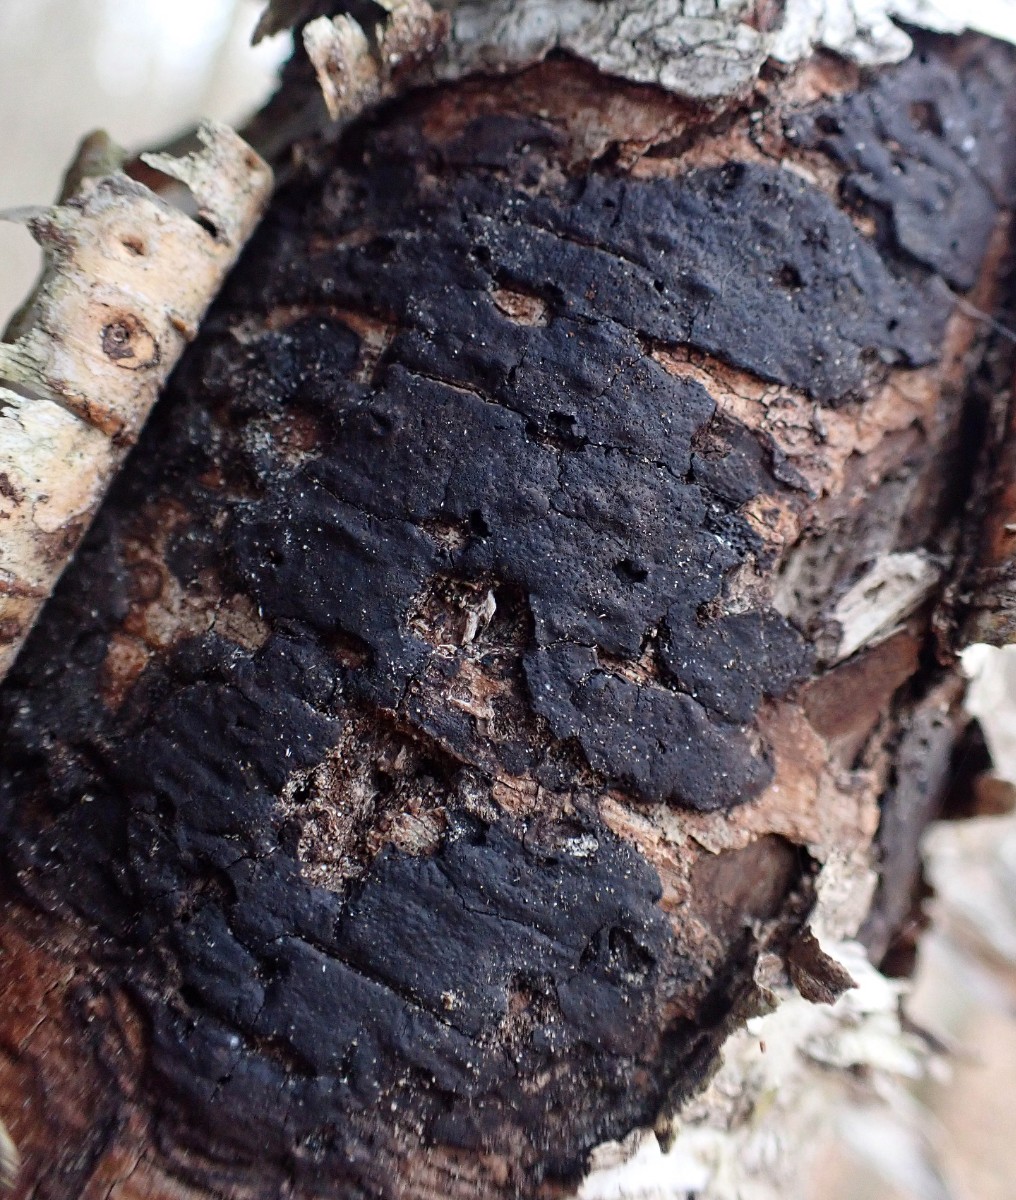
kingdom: Fungi
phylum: Ascomycota
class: Sordariomycetes
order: Xylariales
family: Diatrypaceae
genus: Diatrype
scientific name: Diatrype
